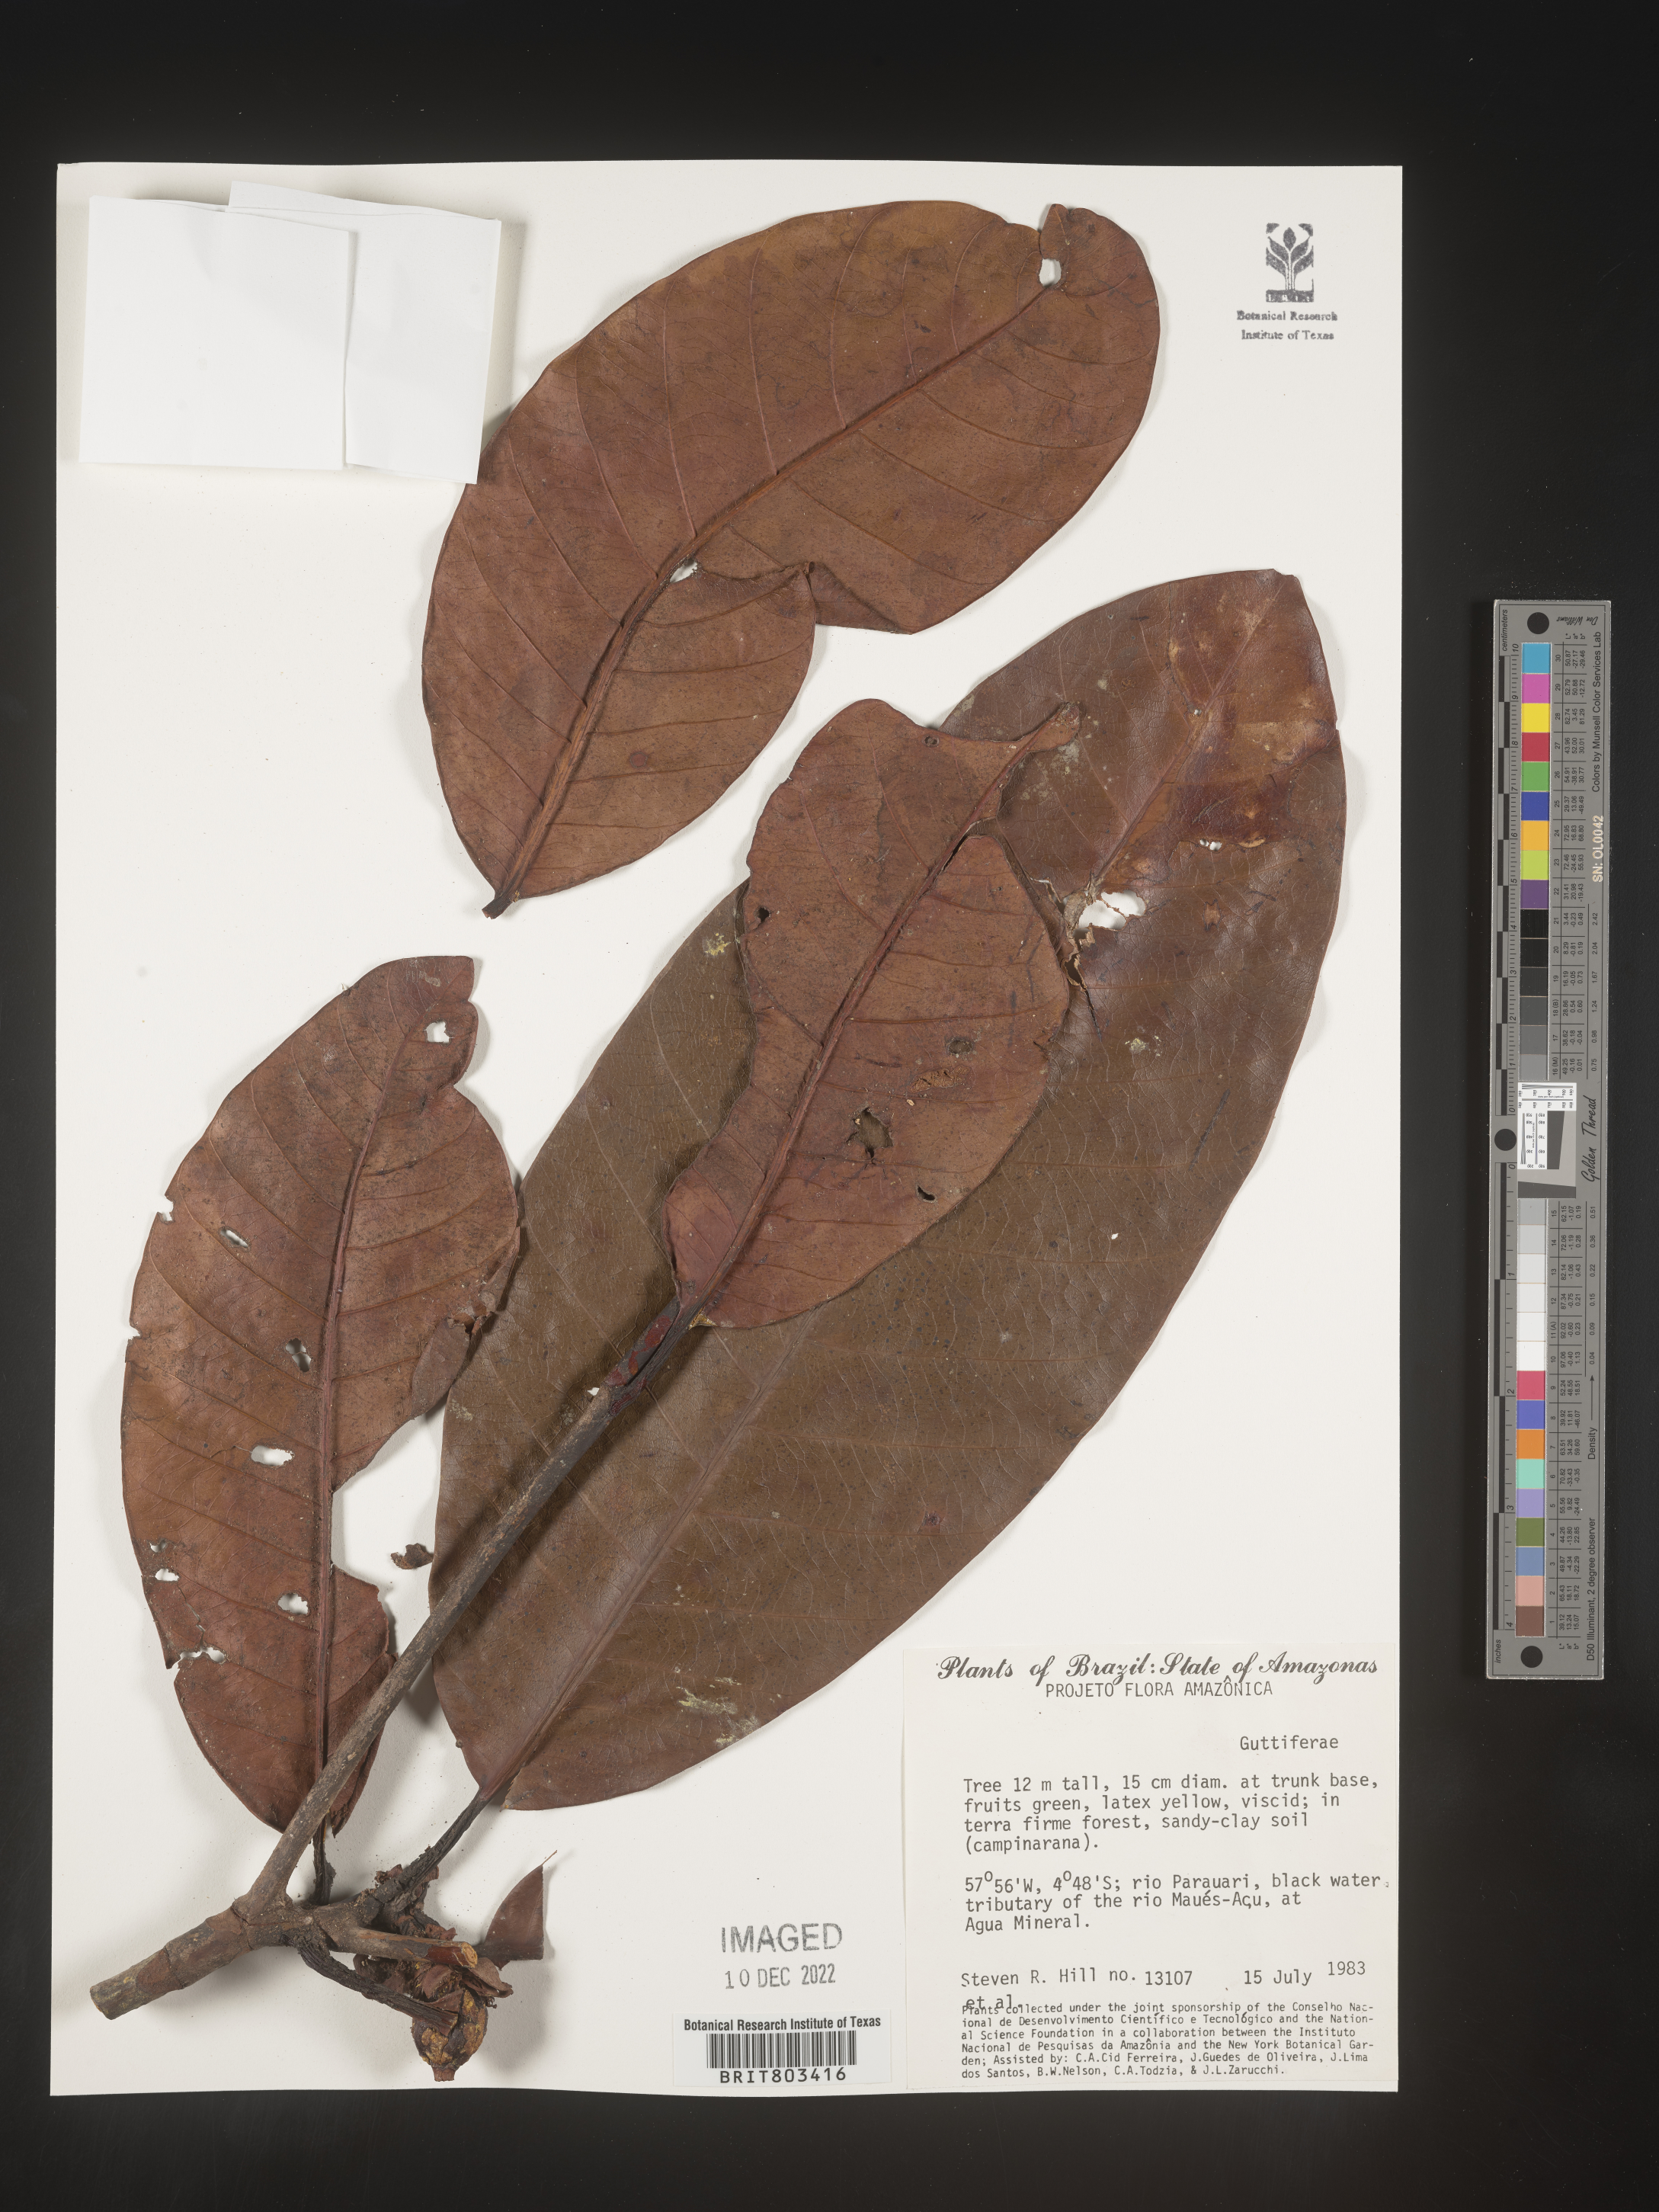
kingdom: Plantae
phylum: Tracheophyta
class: Magnoliopsida
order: Malpighiales
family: Clusiaceae
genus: Tovomita
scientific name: Tovomita
